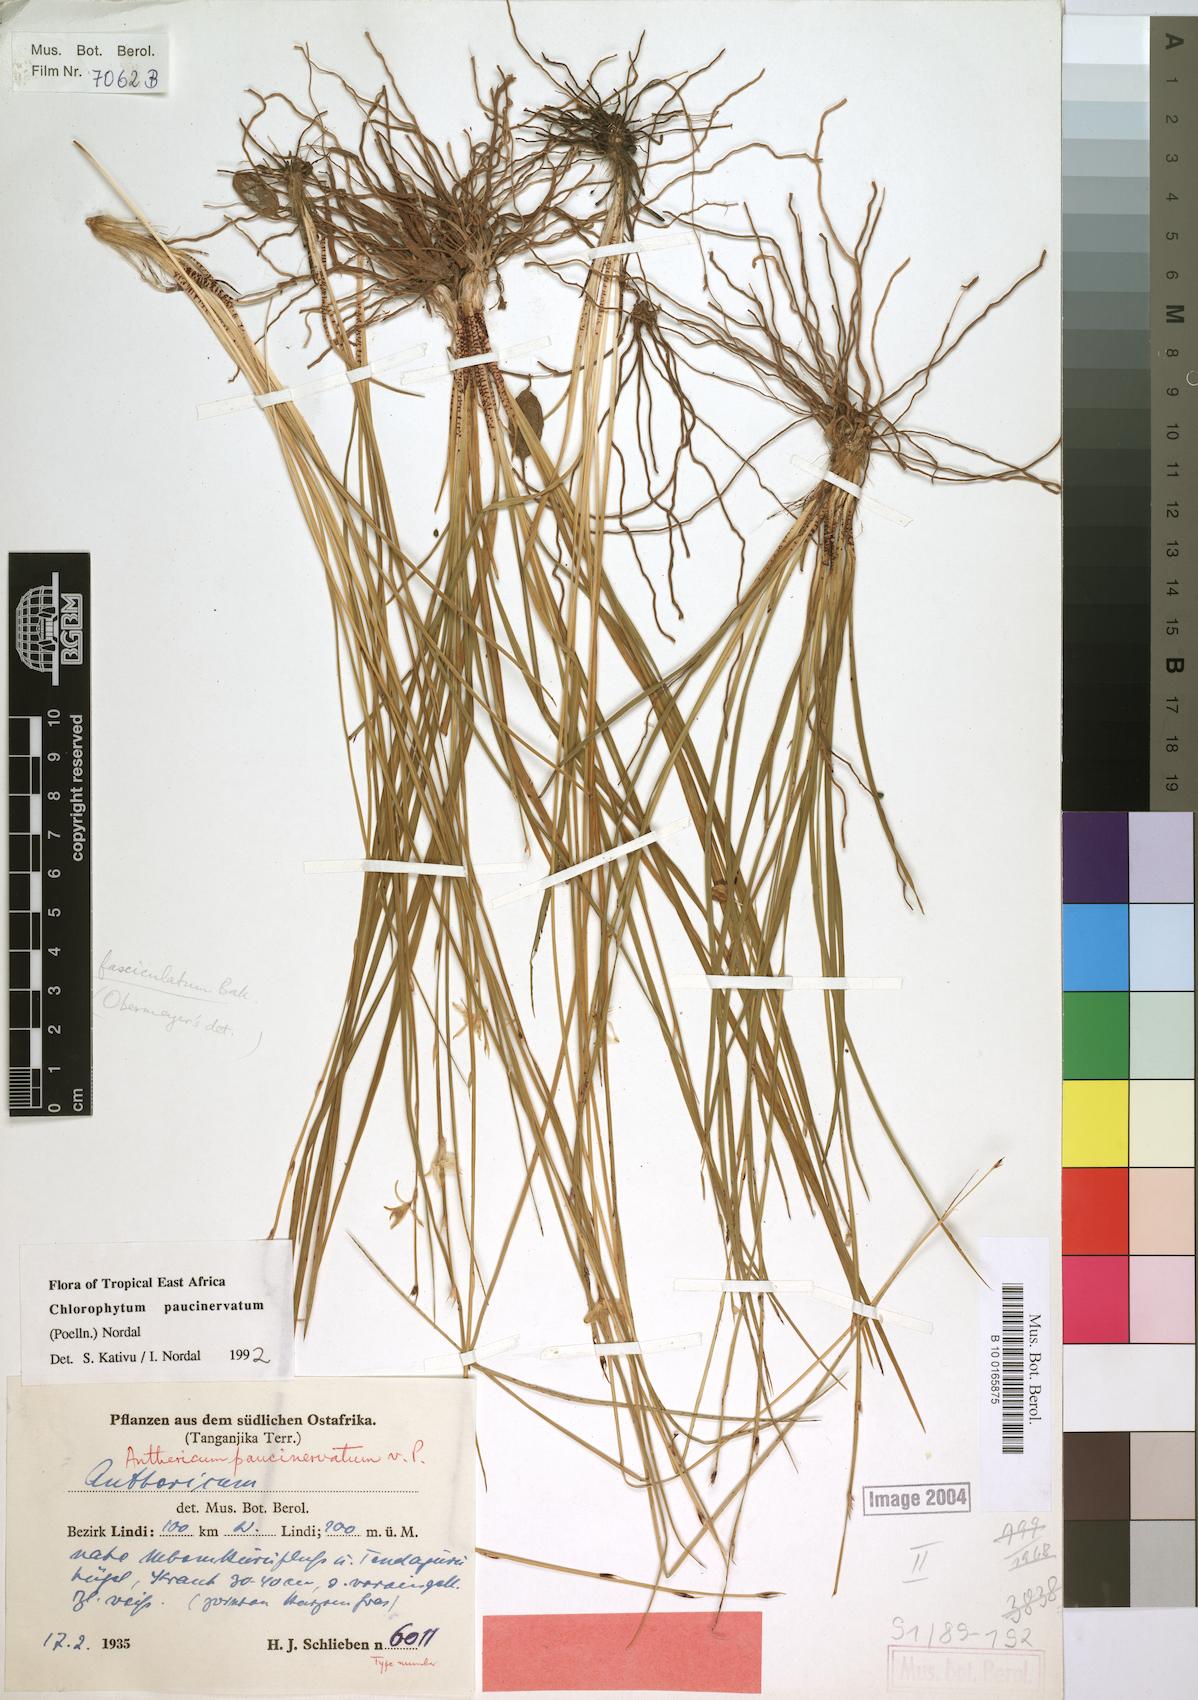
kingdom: Plantae
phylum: Tracheophyta
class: Liliopsida
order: Asparagales
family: Asparagaceae
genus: Chlorophytum
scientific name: Chlorophytum paucinervatum
